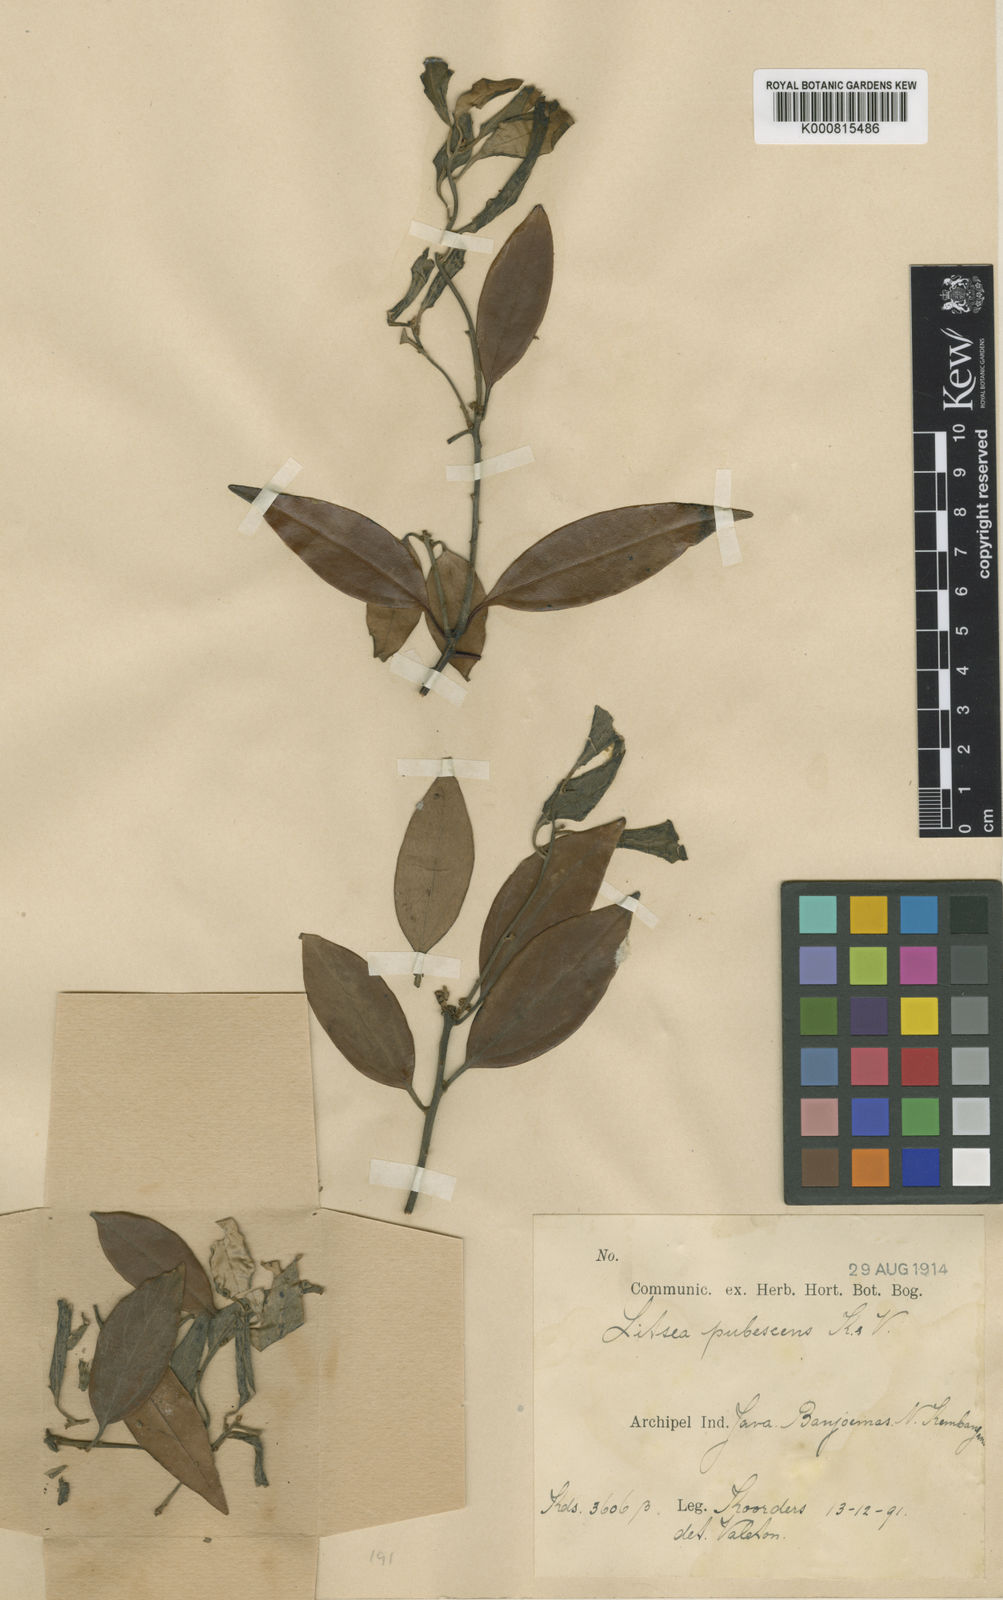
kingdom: Plantae
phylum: Tracheophyta
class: Magnoliopsida
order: Laurales
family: Lauraceae
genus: Neolitsea
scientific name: Neolitsea
